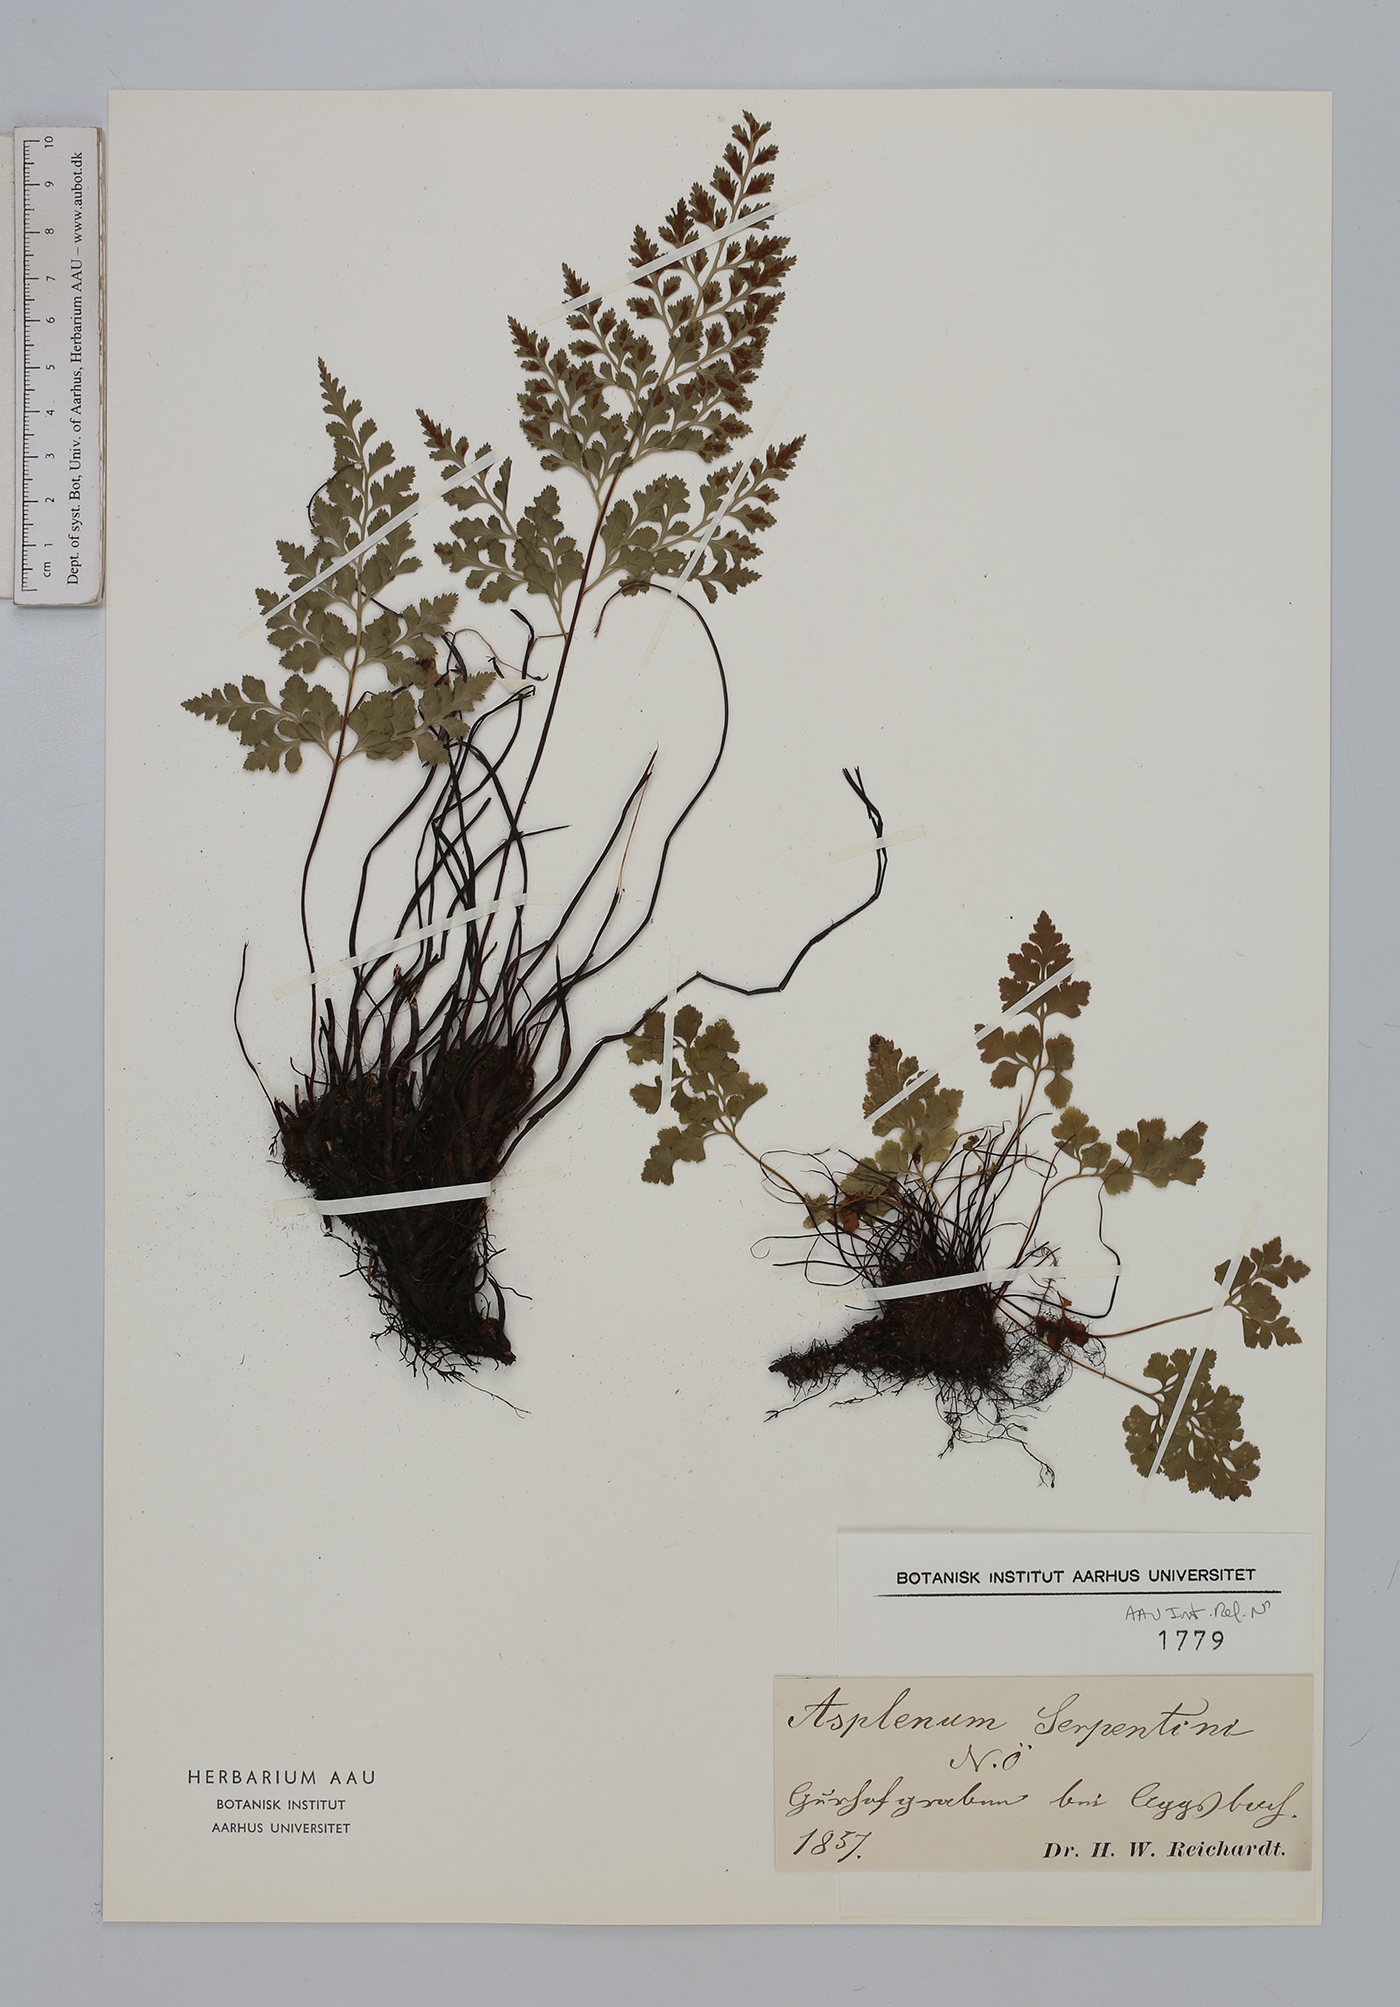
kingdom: Plantae
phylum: Tracheophyta
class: Polypodiopsida
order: Polypodiales
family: Aspleniaceae
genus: Asplenium
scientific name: Asplenium cuneifolium
